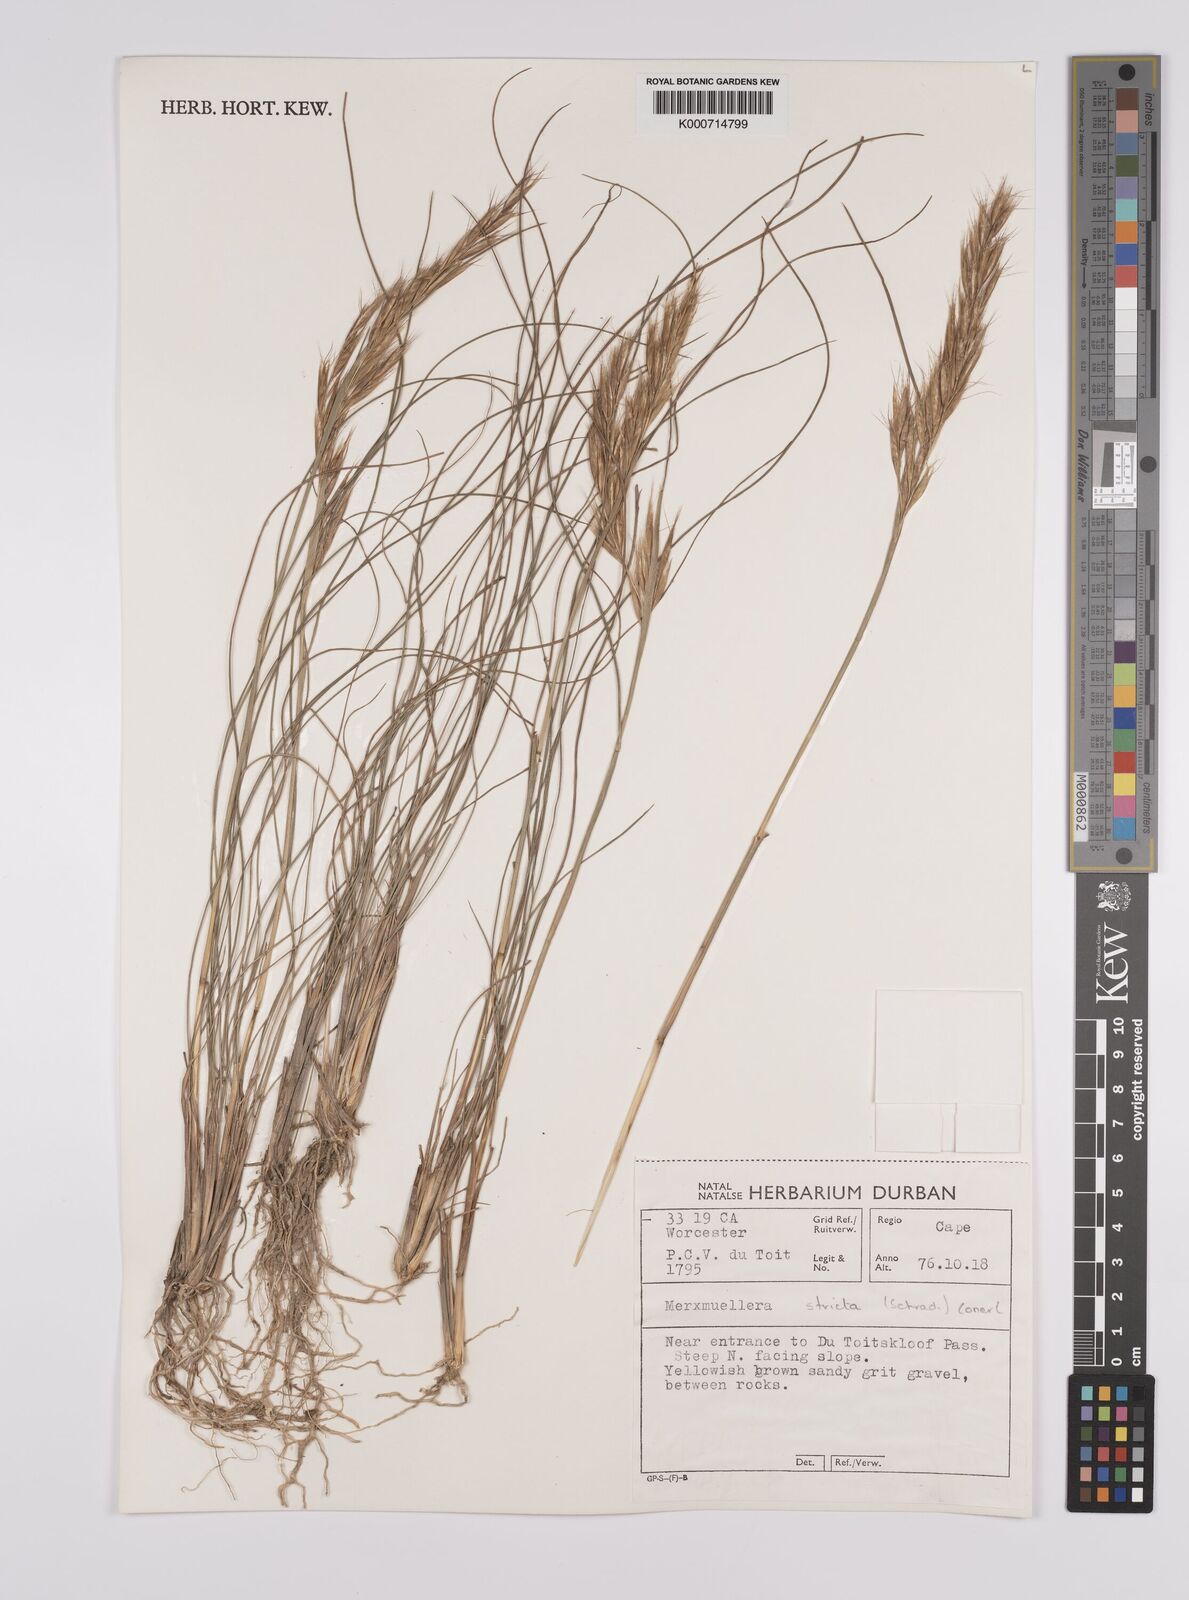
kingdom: Plantae
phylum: Tracheophyta
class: Liliopsida
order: Poales
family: Poaceae
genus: Rytidosperma
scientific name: Rytidosperma
